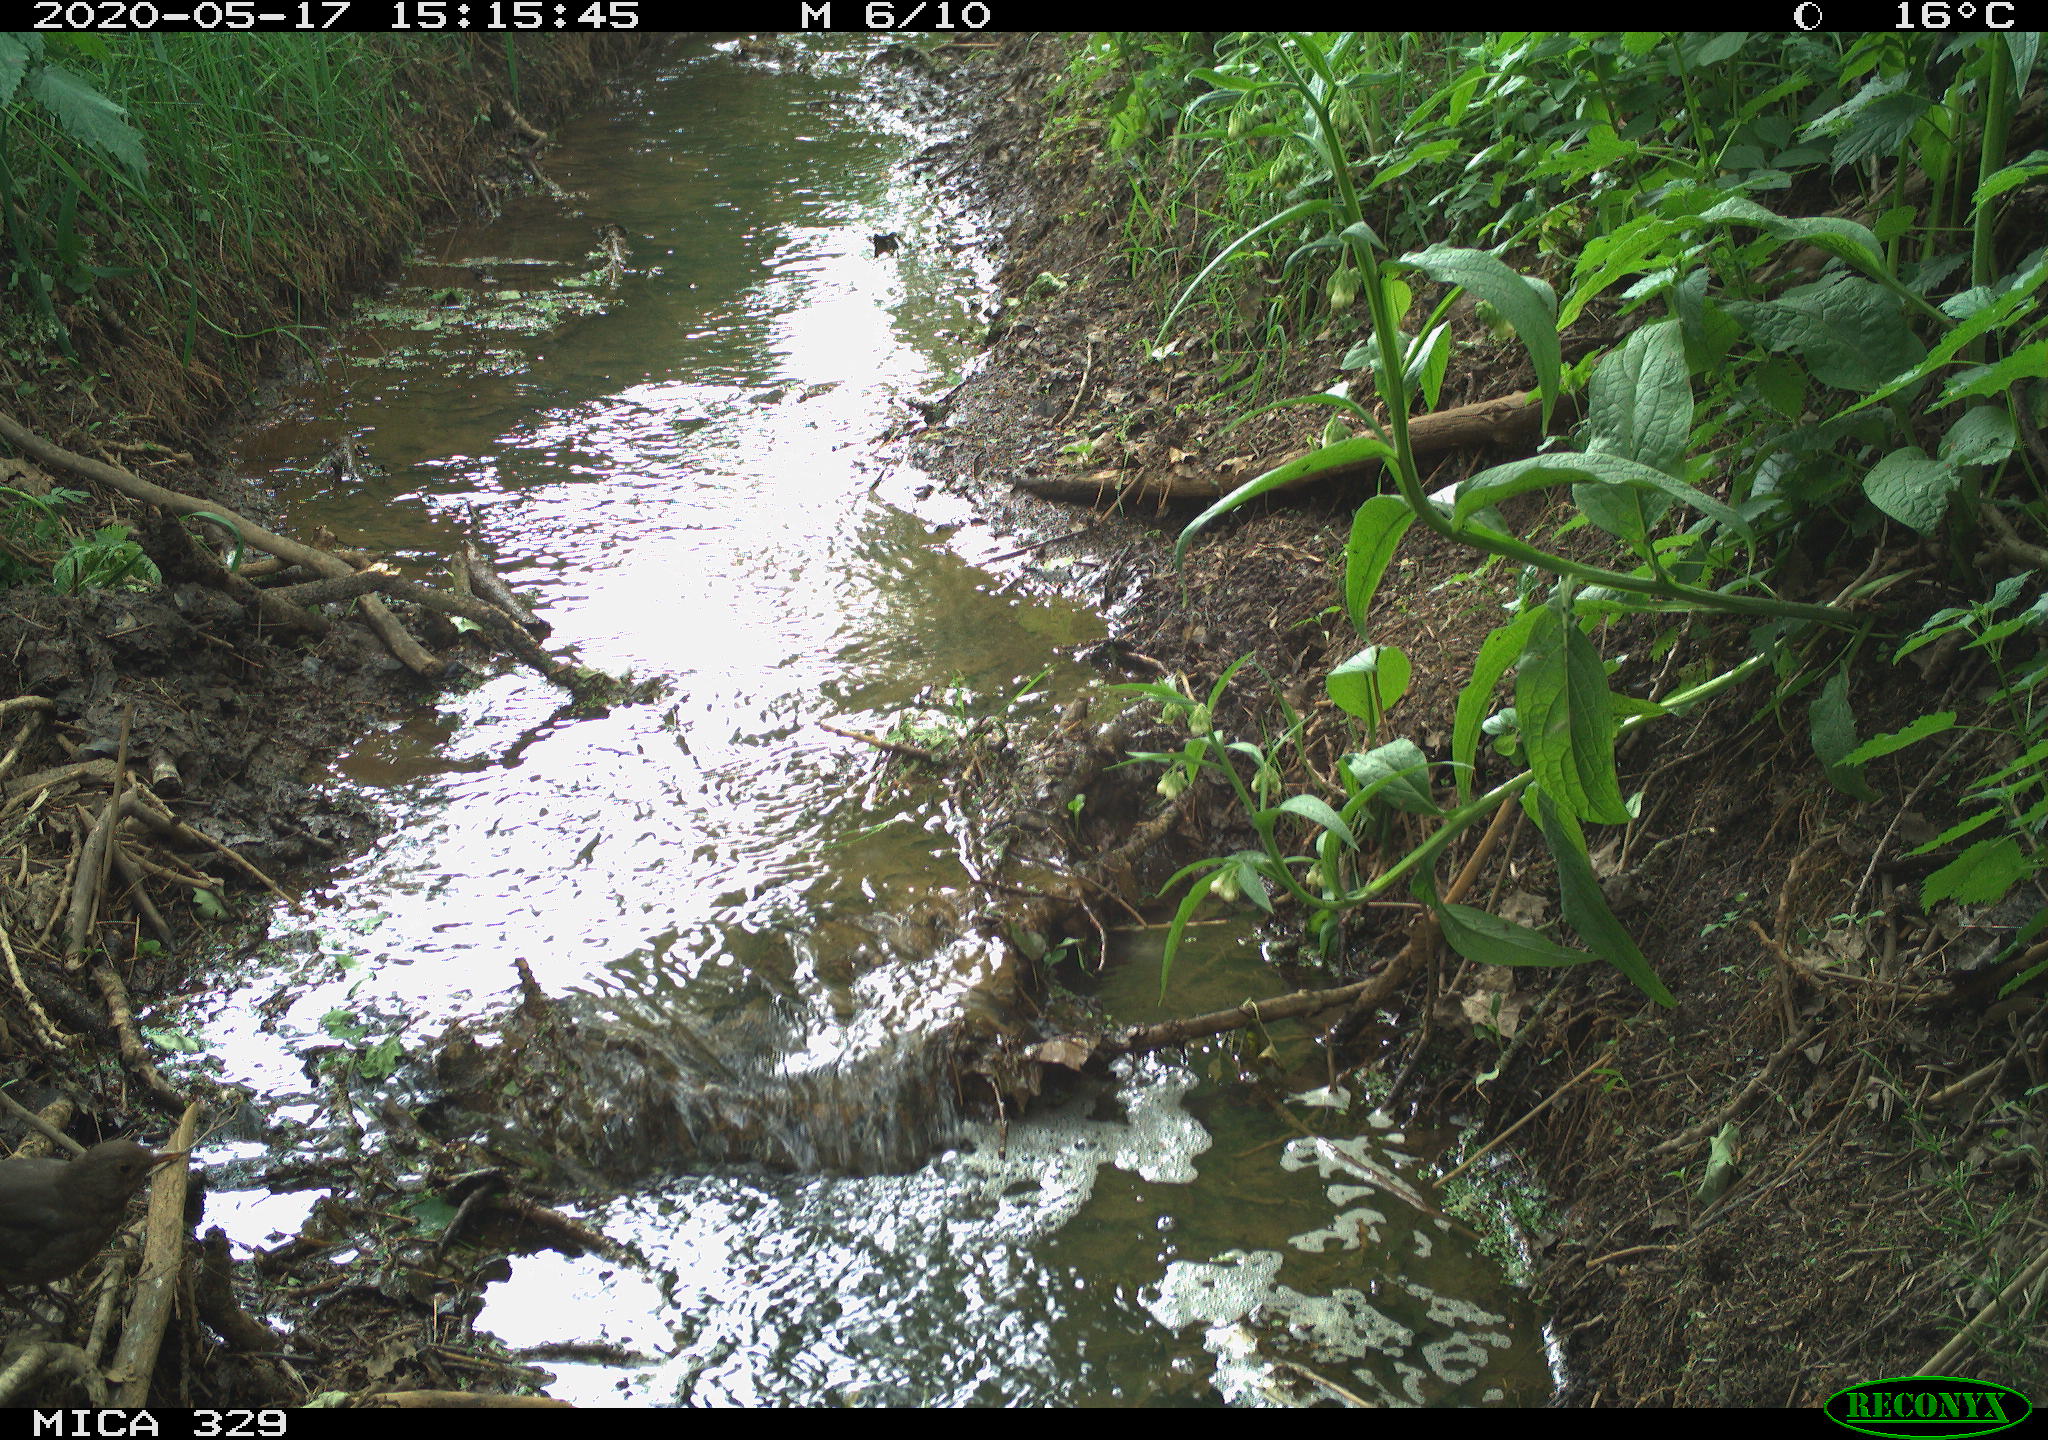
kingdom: Animalia
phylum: Chordata
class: Aves
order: Passeriformes
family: Turdidae
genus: Turdus
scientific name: Turdus merula
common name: Common blackbird
